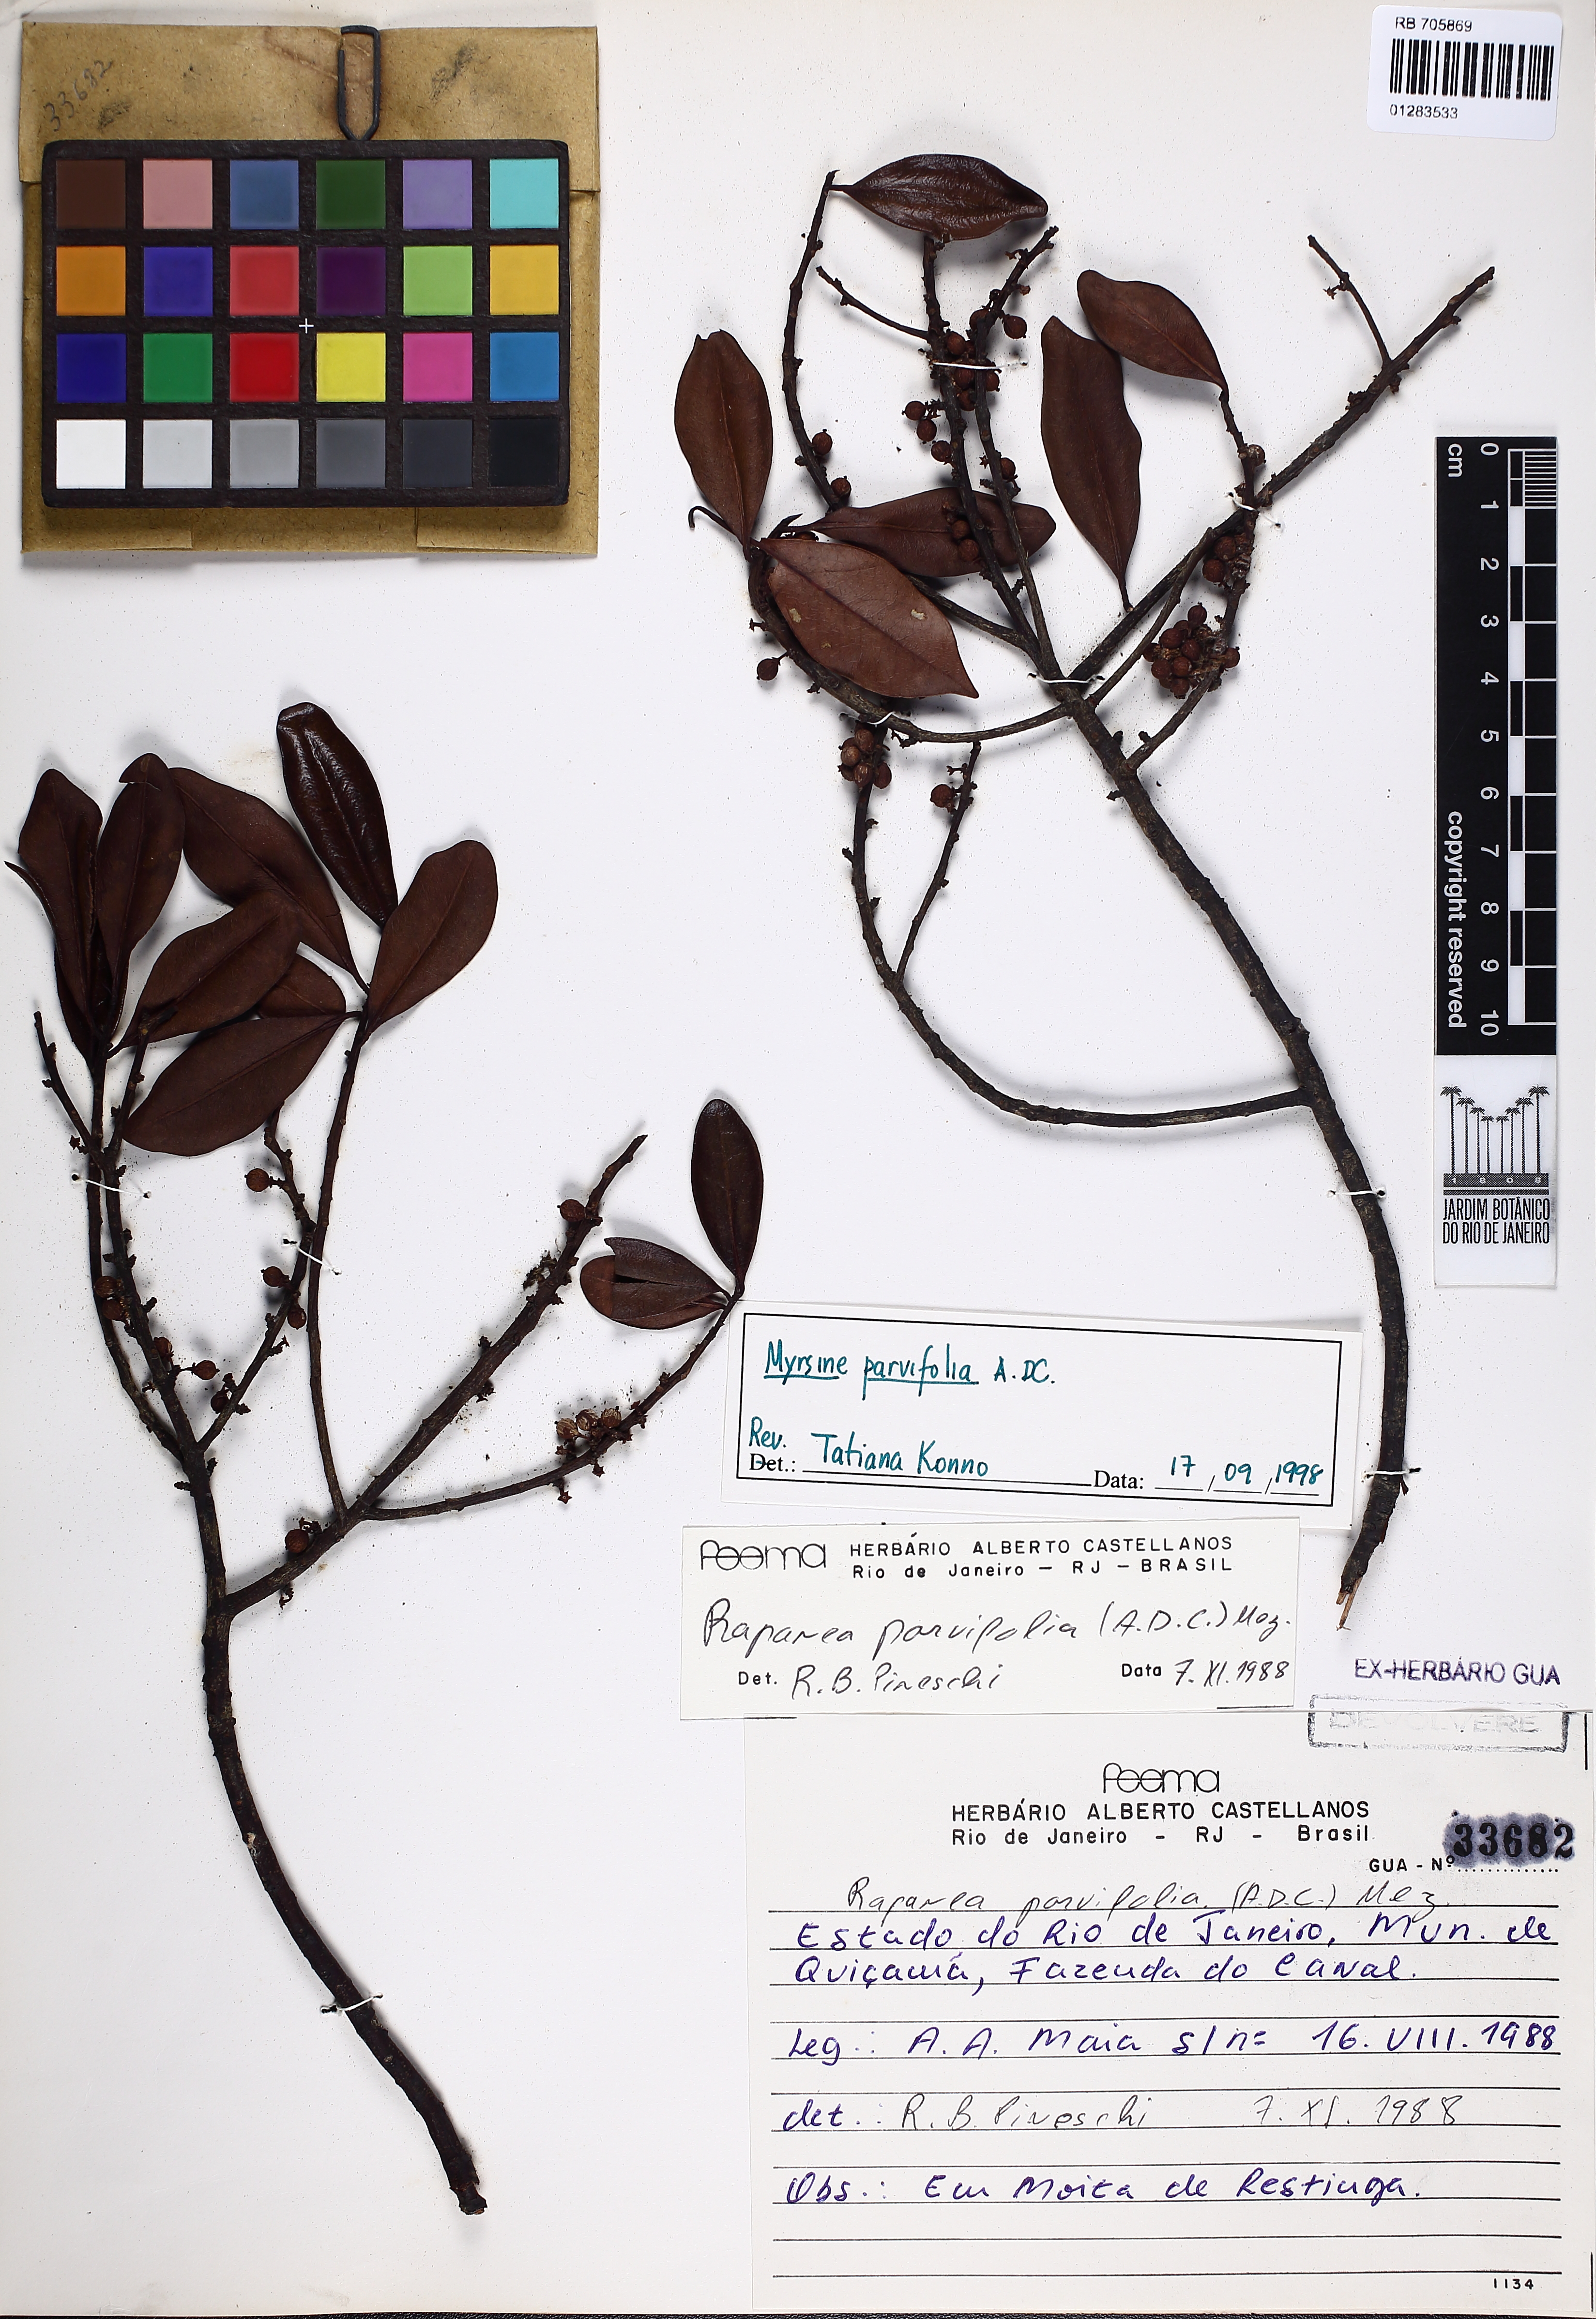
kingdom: Plantae
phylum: Tracheophyta
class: Magnoliopsida
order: Ericales
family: Primulaceae
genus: Myrsine
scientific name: Myrsine parvifolia
